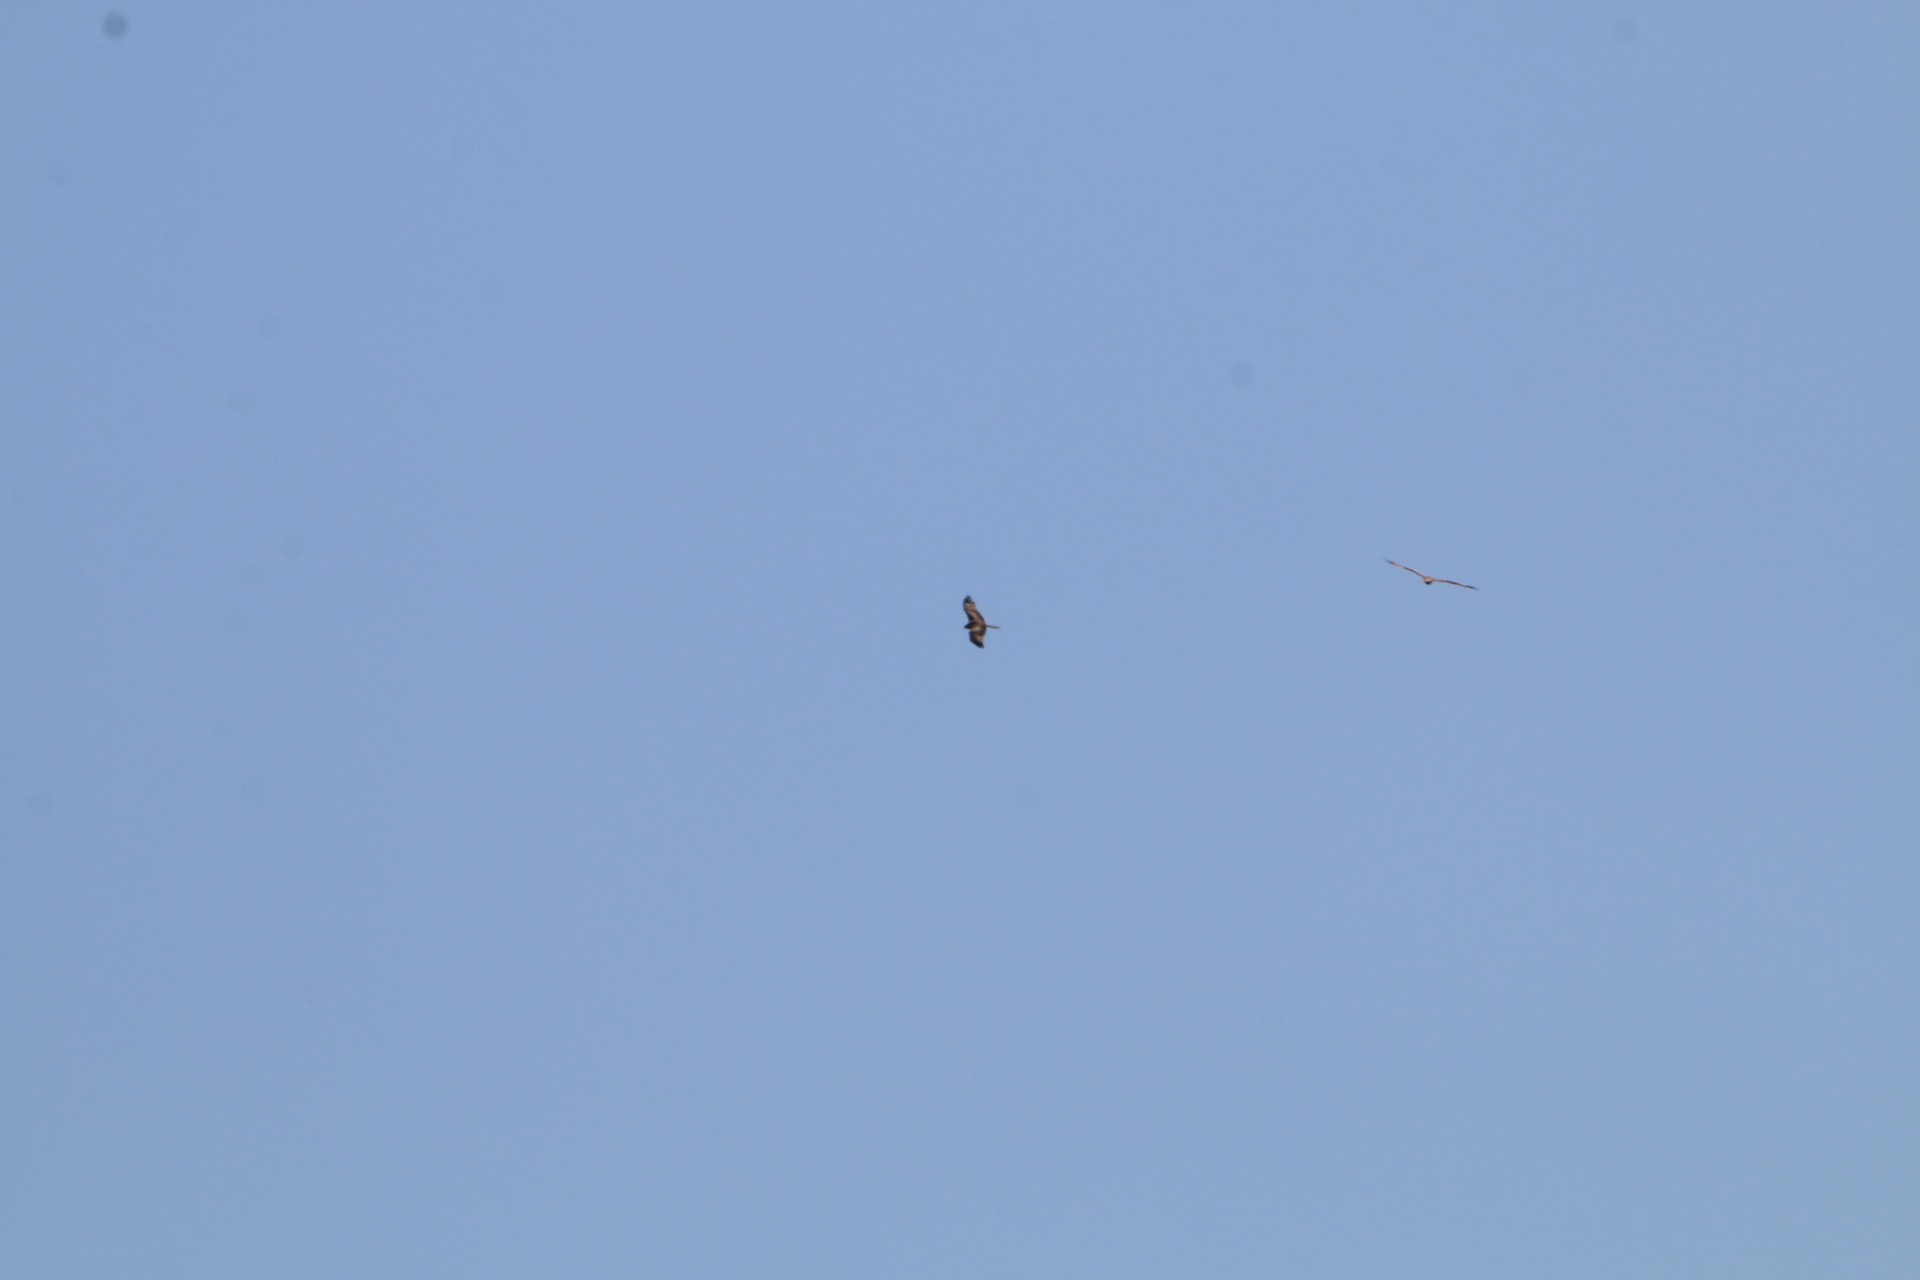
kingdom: Animalia
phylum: Chordata
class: Aves
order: Accipitriformes
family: Accipitridae
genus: Milvus
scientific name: Milvus milvus
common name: Rød glente
